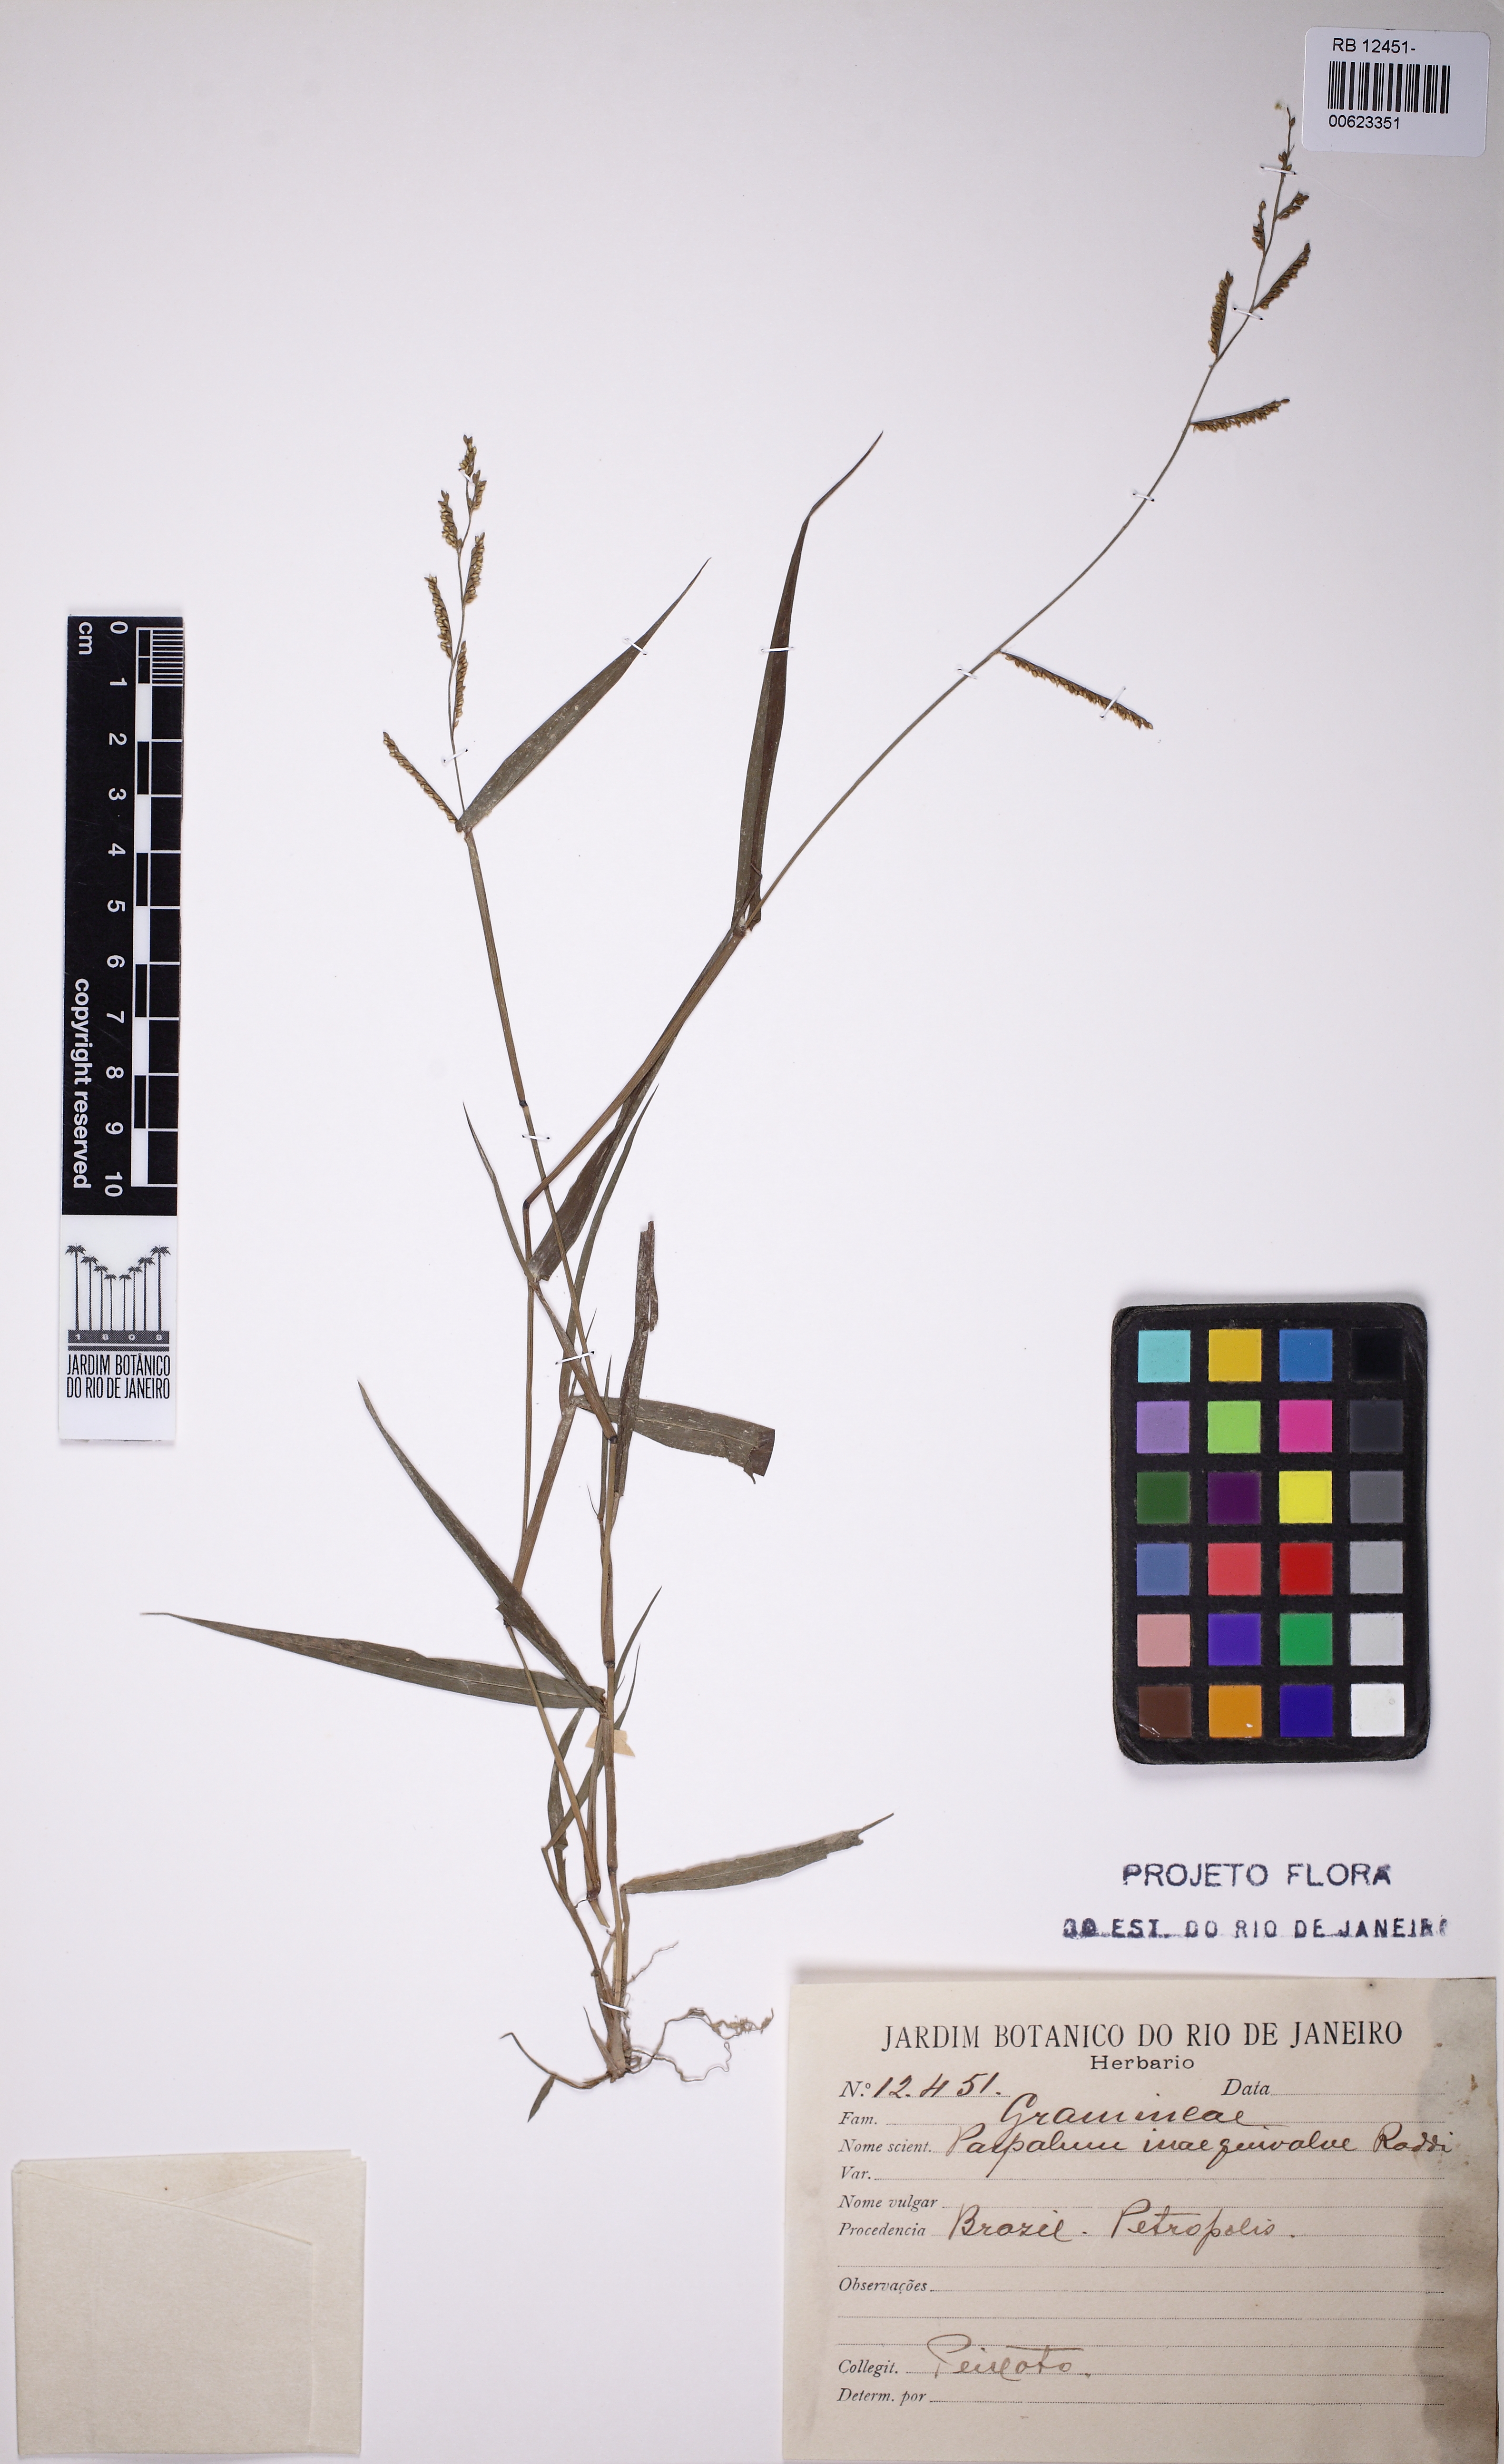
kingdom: Plantae
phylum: Tracheophyta
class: Liliopsida
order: Poales
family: Poaceae
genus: Paspalum
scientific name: Paspalum inaequivalve
